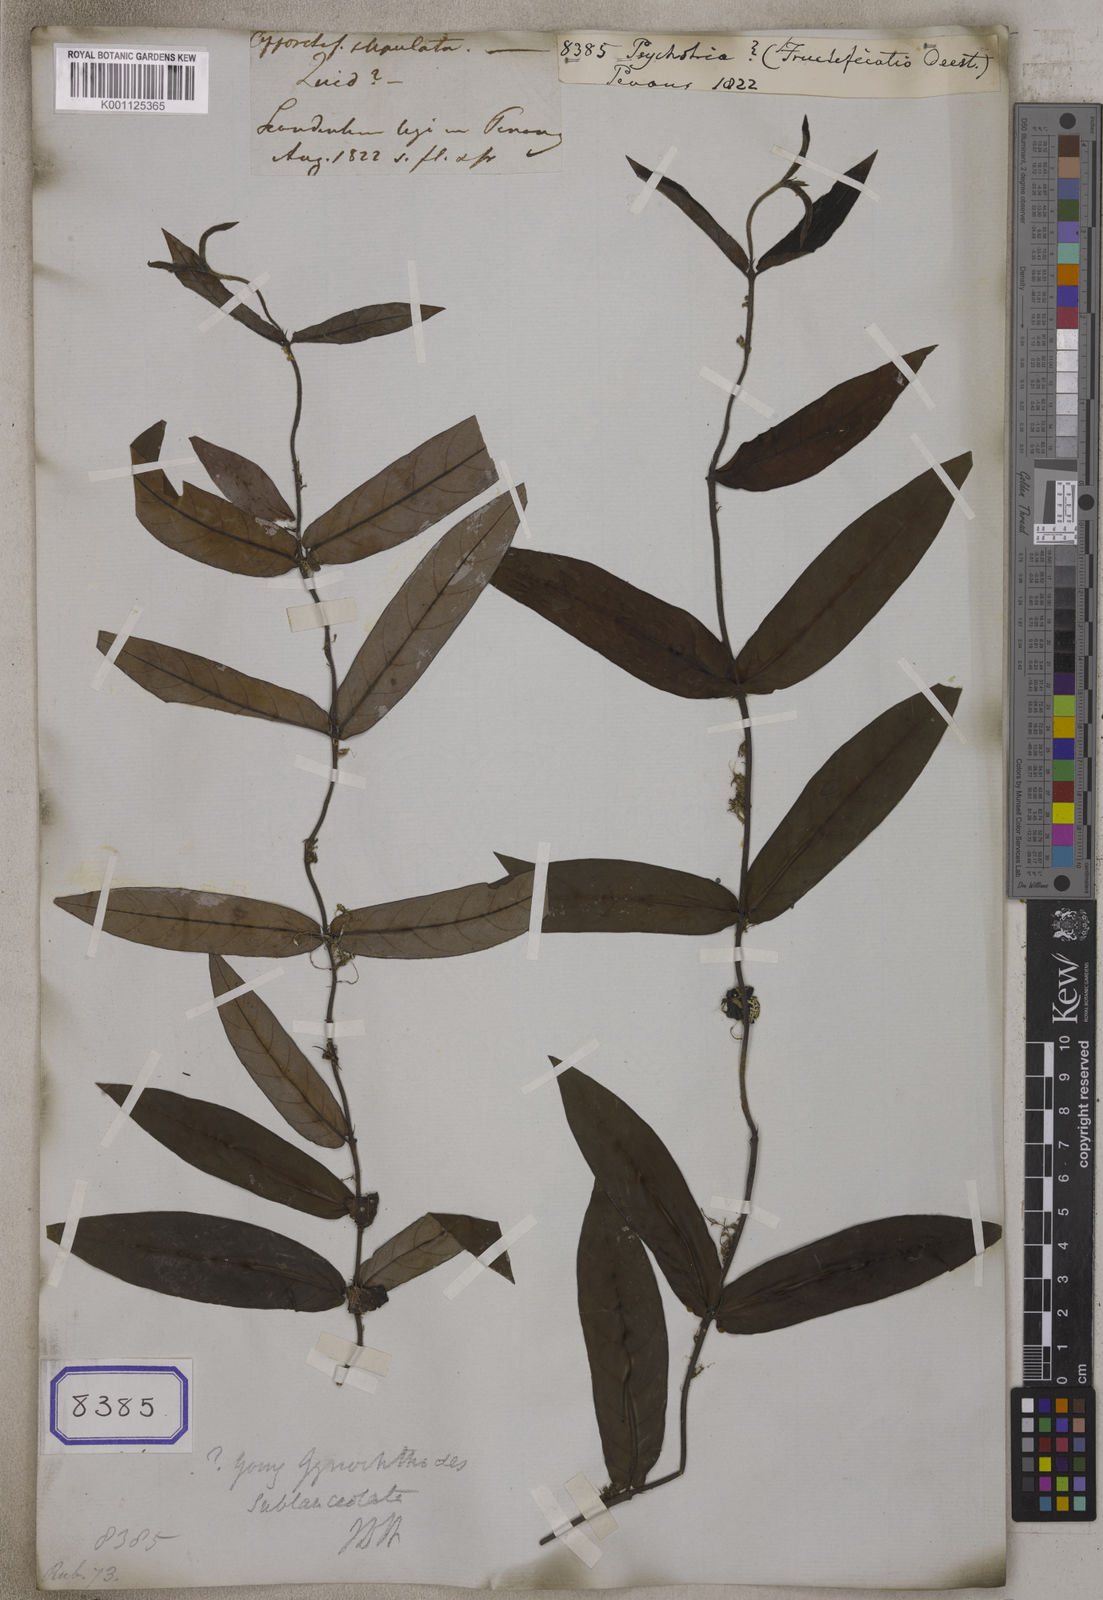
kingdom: Plantae
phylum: Tracheophyta
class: Magnoliopsida
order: Gentianales
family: Rubiaceae
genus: Psychotria
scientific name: Psychotria
